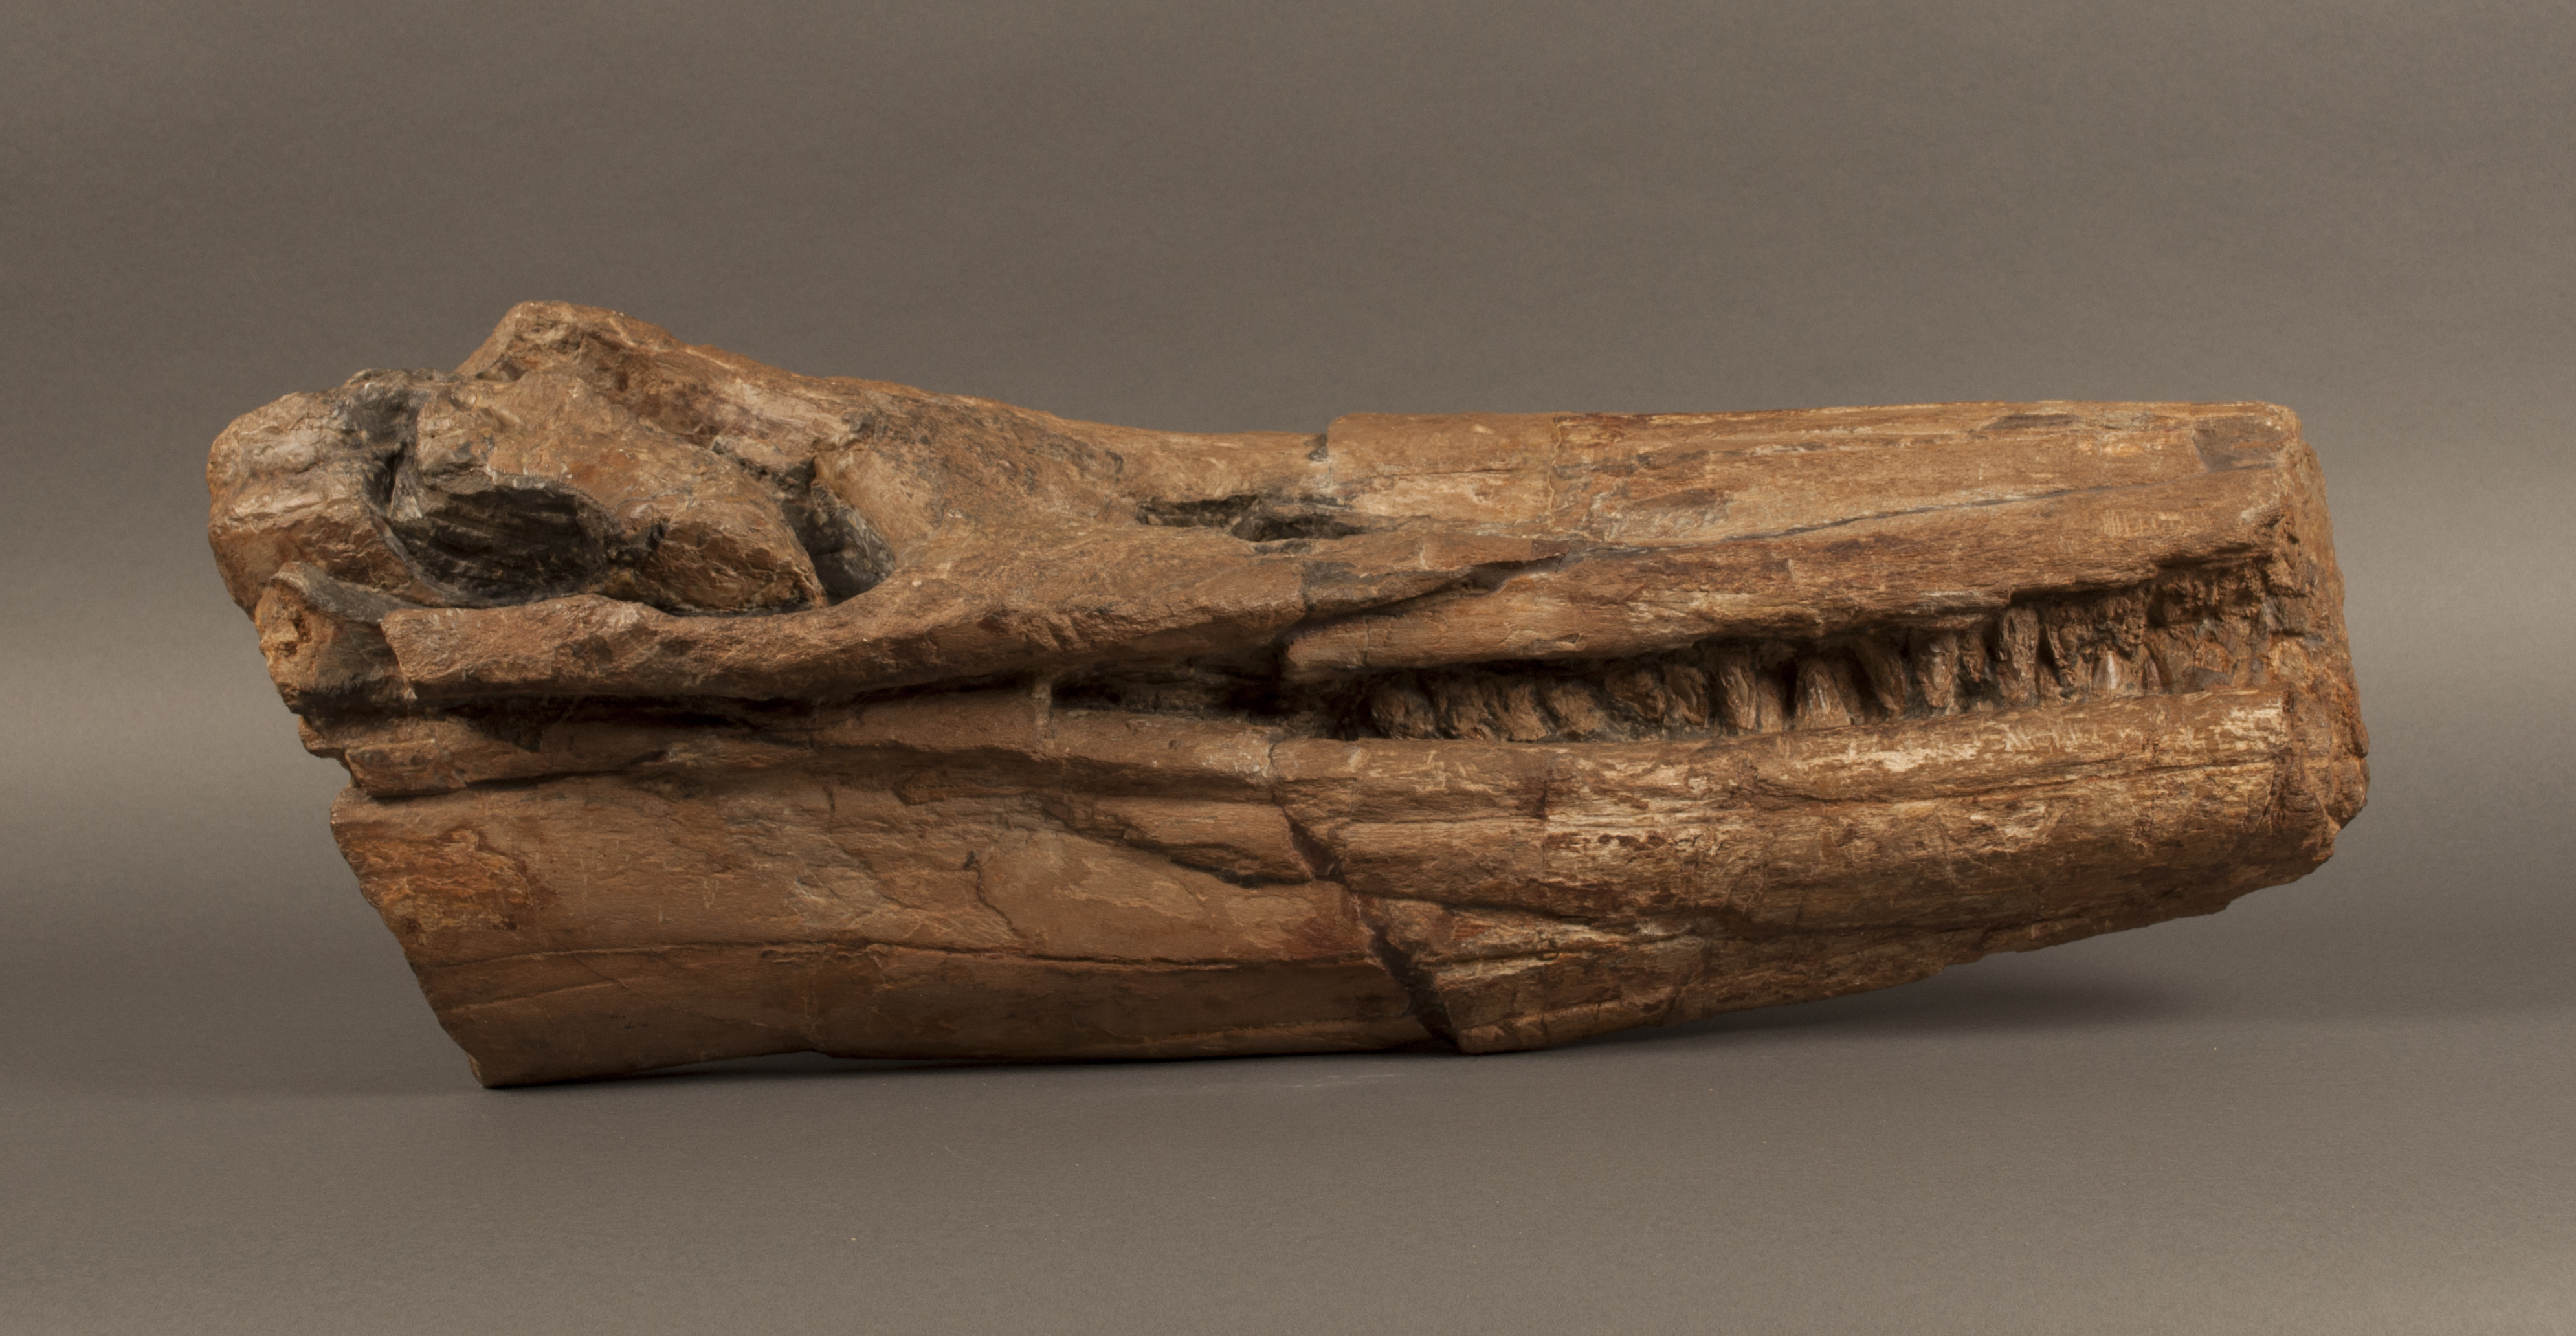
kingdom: Animalia
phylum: Chordata
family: Leptopterygiidae
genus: Temnodontosaurus
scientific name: Temnodontosaurus
